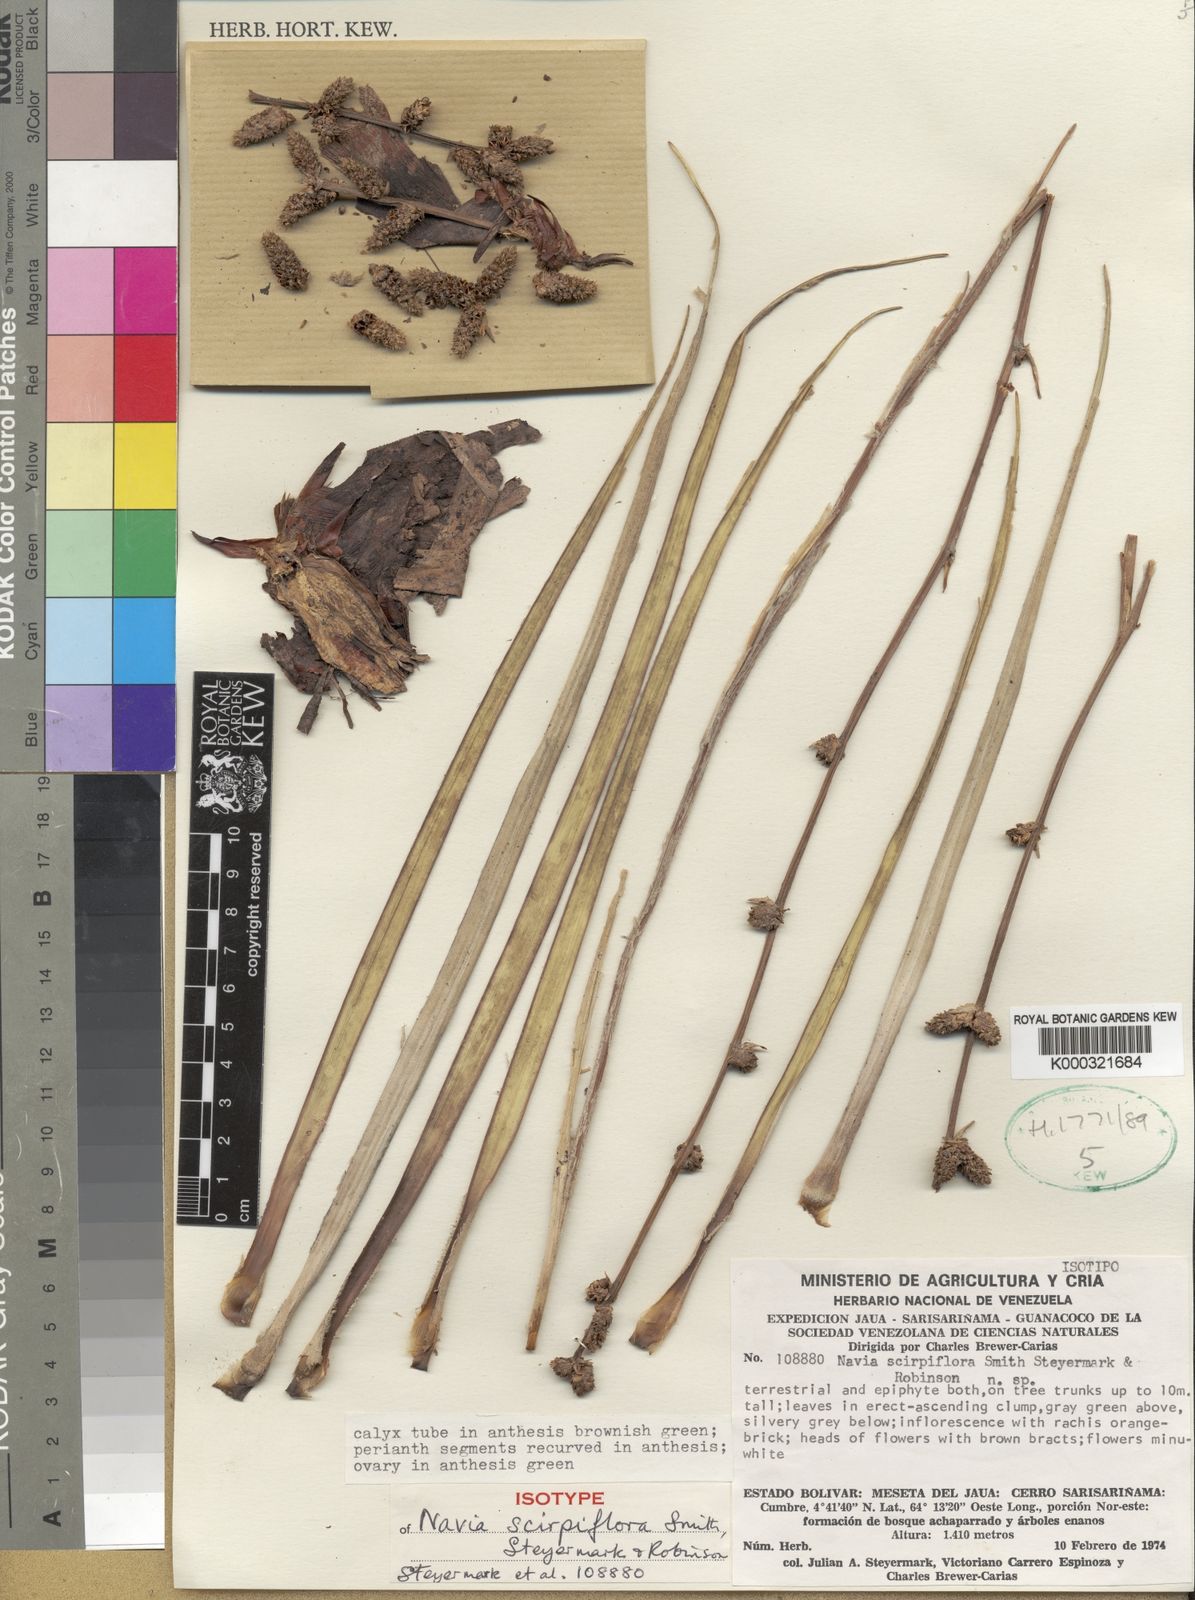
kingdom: Plantae
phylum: Tracheophyta
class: Liliopsida
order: Poales
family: Bromeliaceae
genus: Navia
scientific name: Navia scirpiflora
